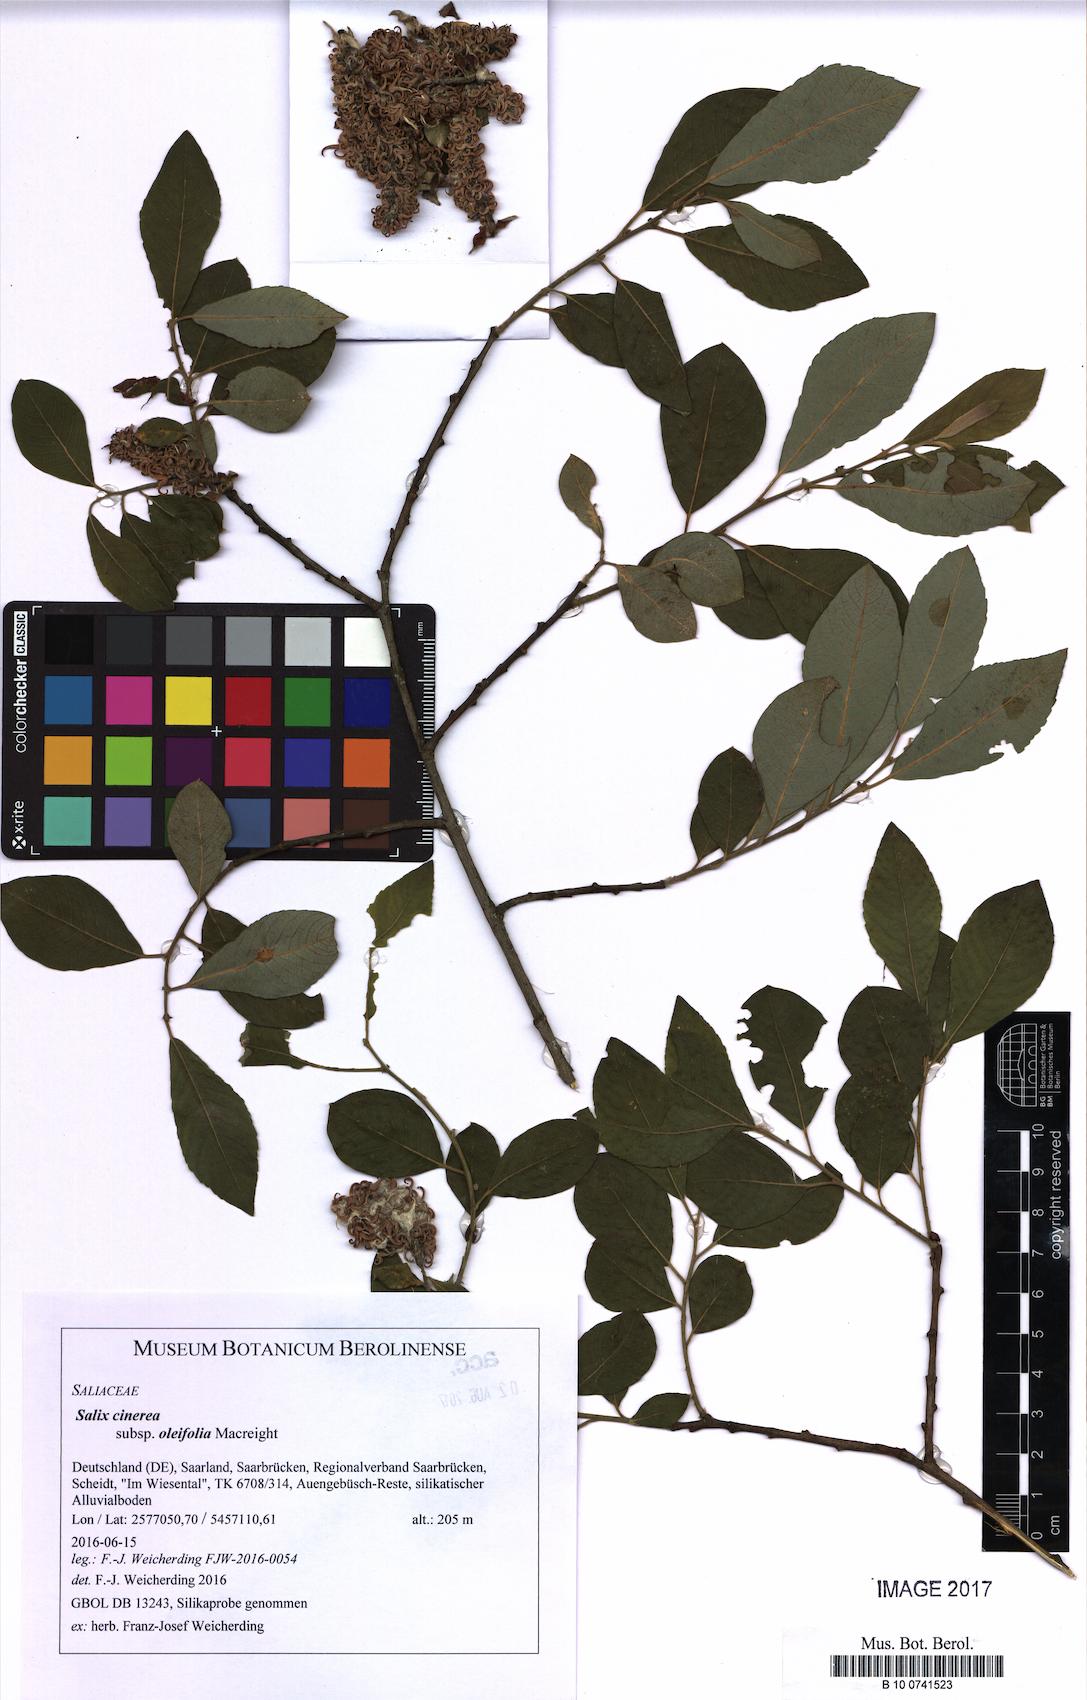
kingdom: Plantae
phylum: Tracheophyta
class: Magnoliopsida
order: Malpighiales
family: Salicaceae
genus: Salix
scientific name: Salix atrocinerea
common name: Rusty willow
